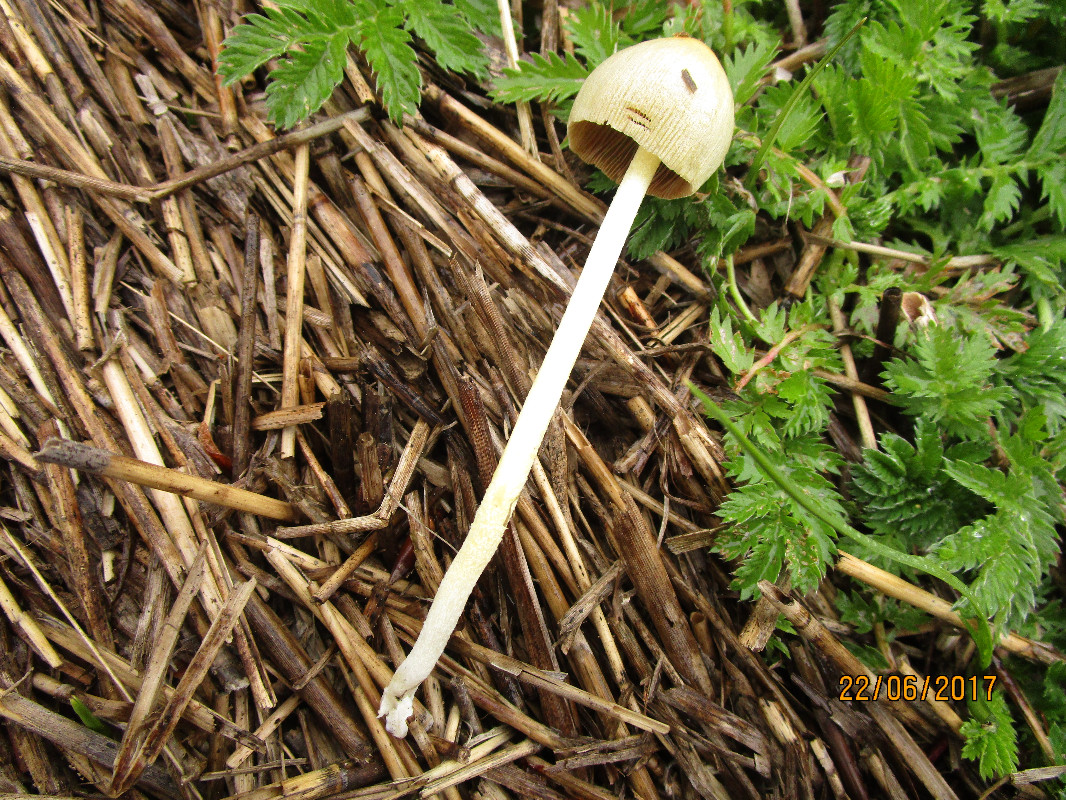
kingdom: Fungi
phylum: Basidiomycota
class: Agaricomycetes
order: Agaricales
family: Bolbitiaceae
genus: Bolbitius
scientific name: Bolbitius titubans
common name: almindelig gulhat
